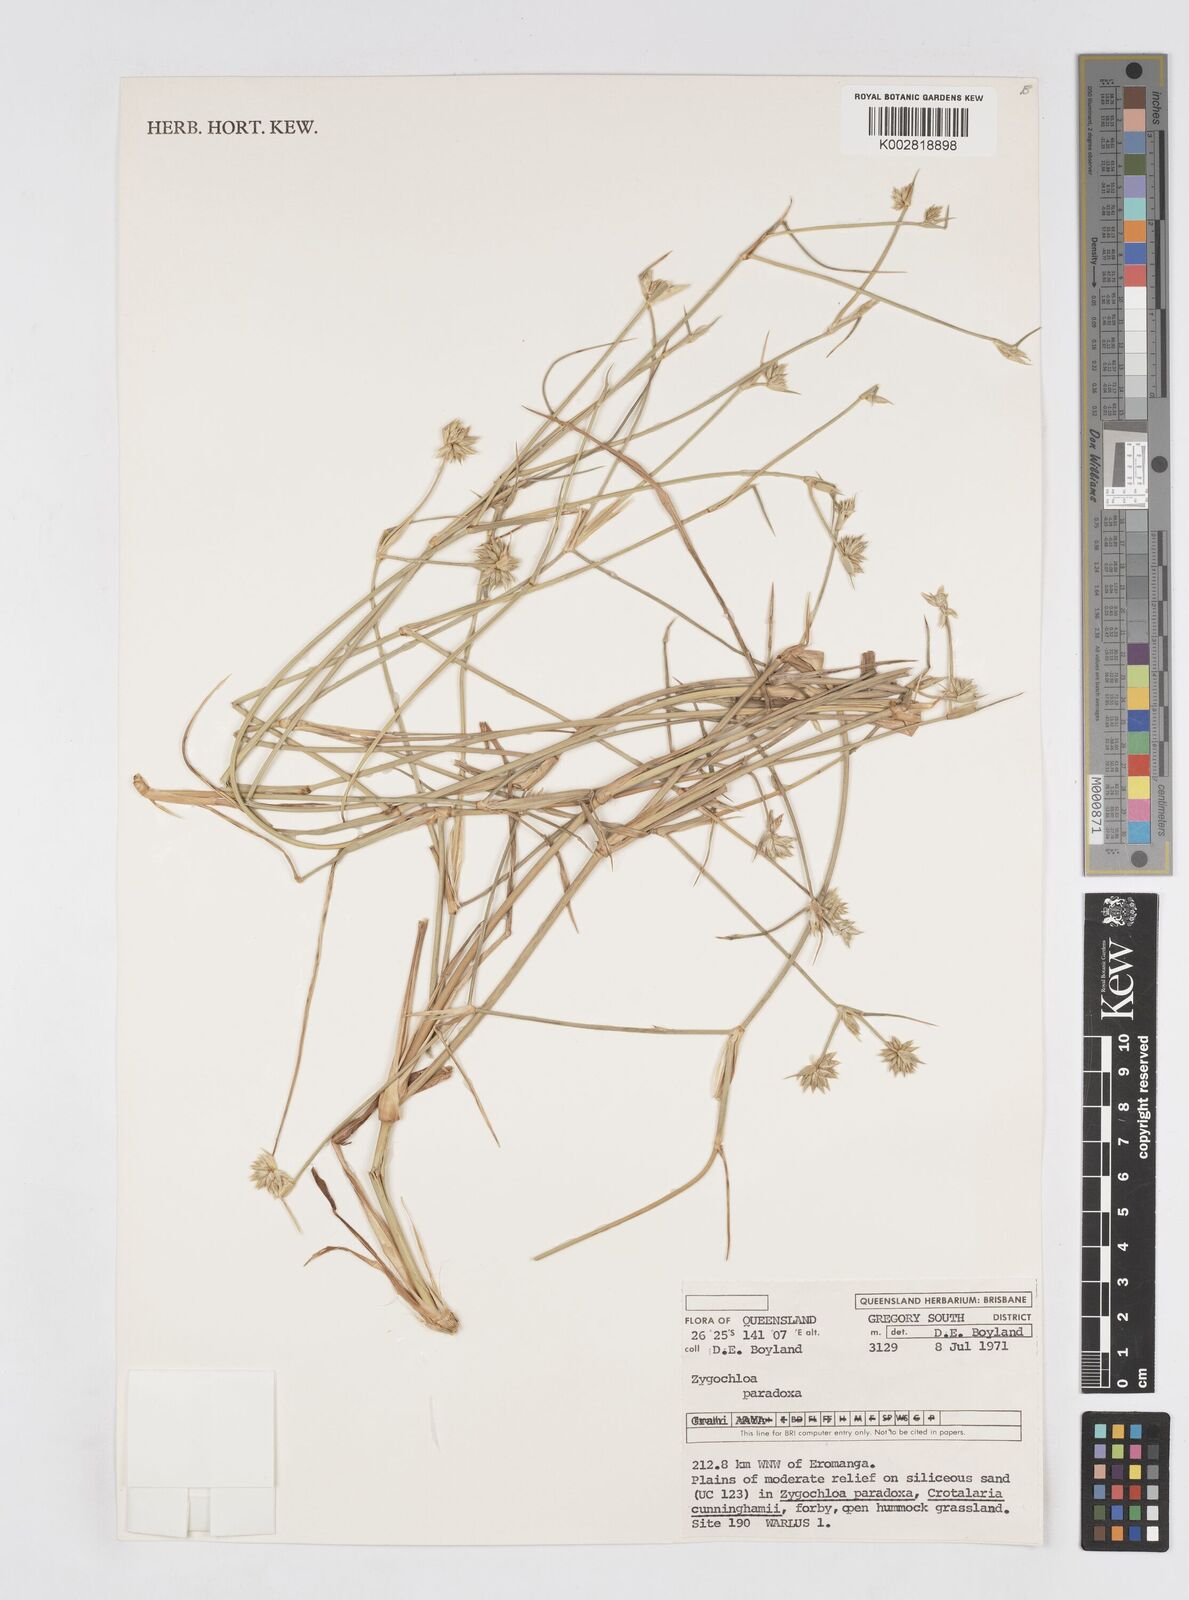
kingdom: Plantae
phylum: Tracheophyta
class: Liliopsida
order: Poales
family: Poaceae
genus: Zygochloa
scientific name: Zygochloa paradoxa
